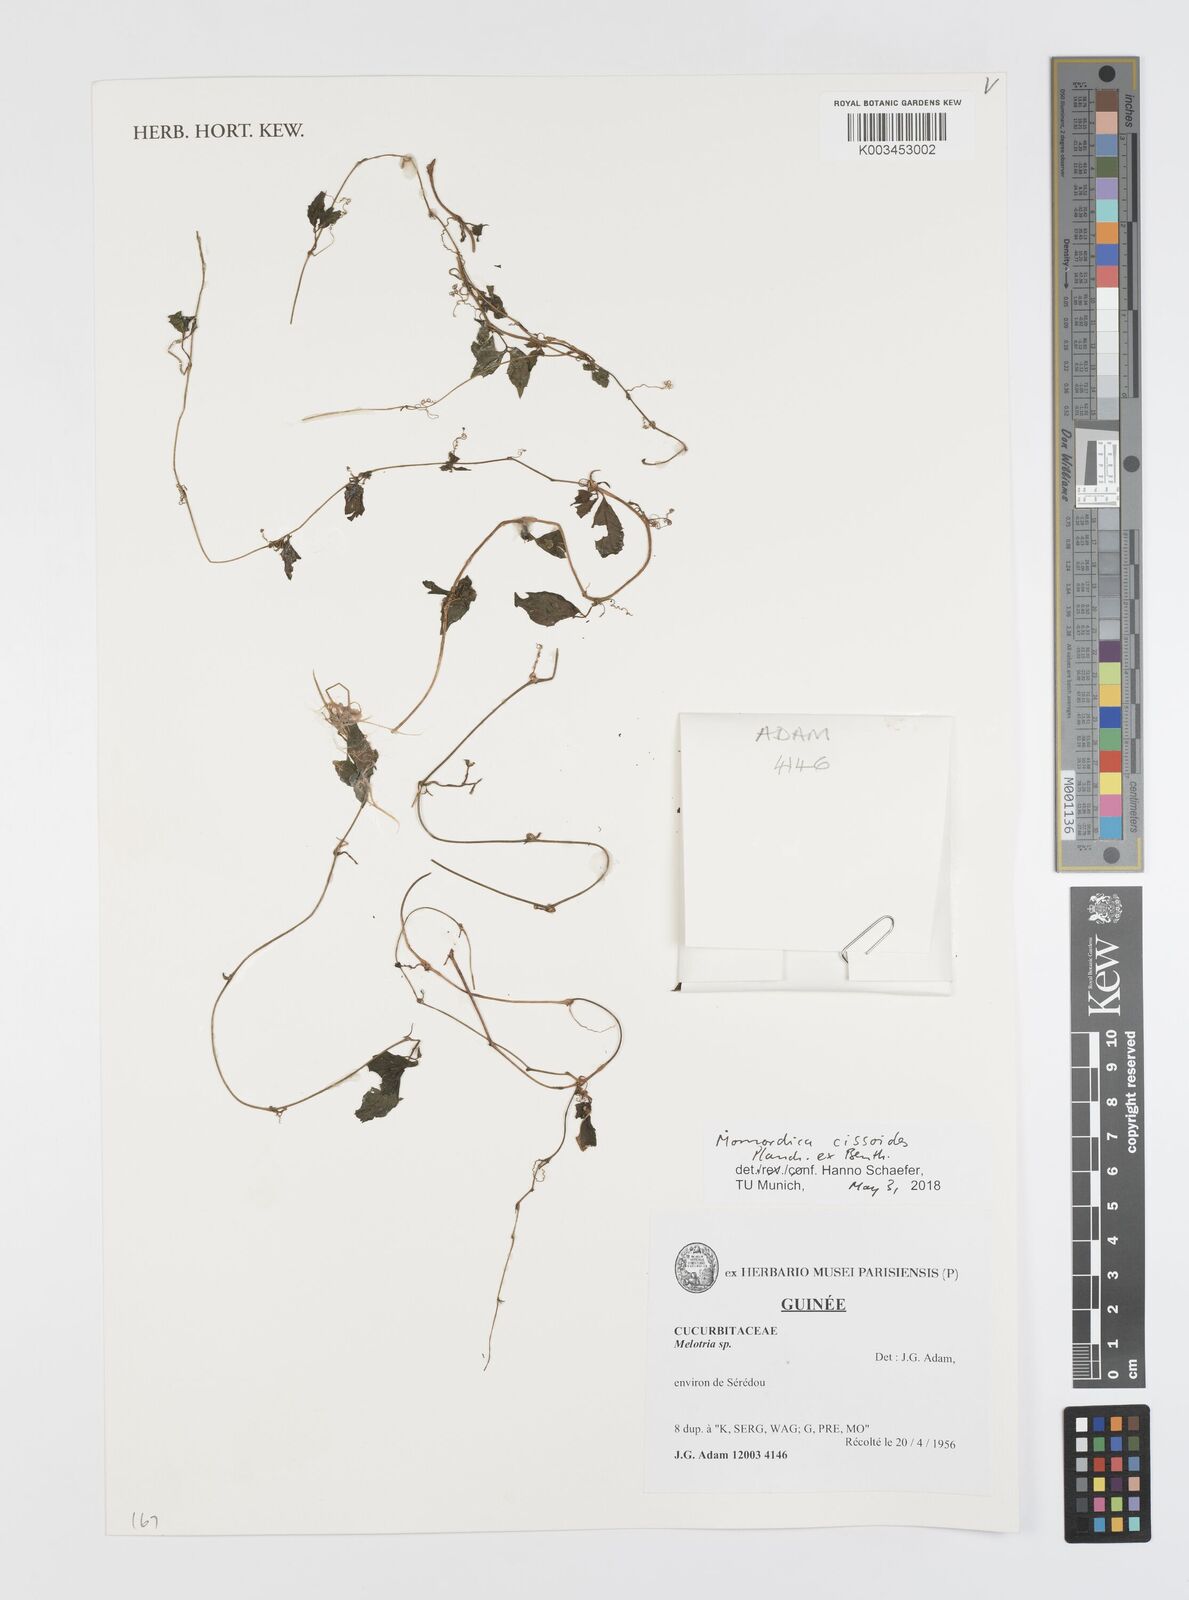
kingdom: Plantae
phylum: Tracheophyta
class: Magnoliopsida
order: Cucurbitales
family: Cucurbitaceae
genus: Momordica
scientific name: Momordica cissoides
